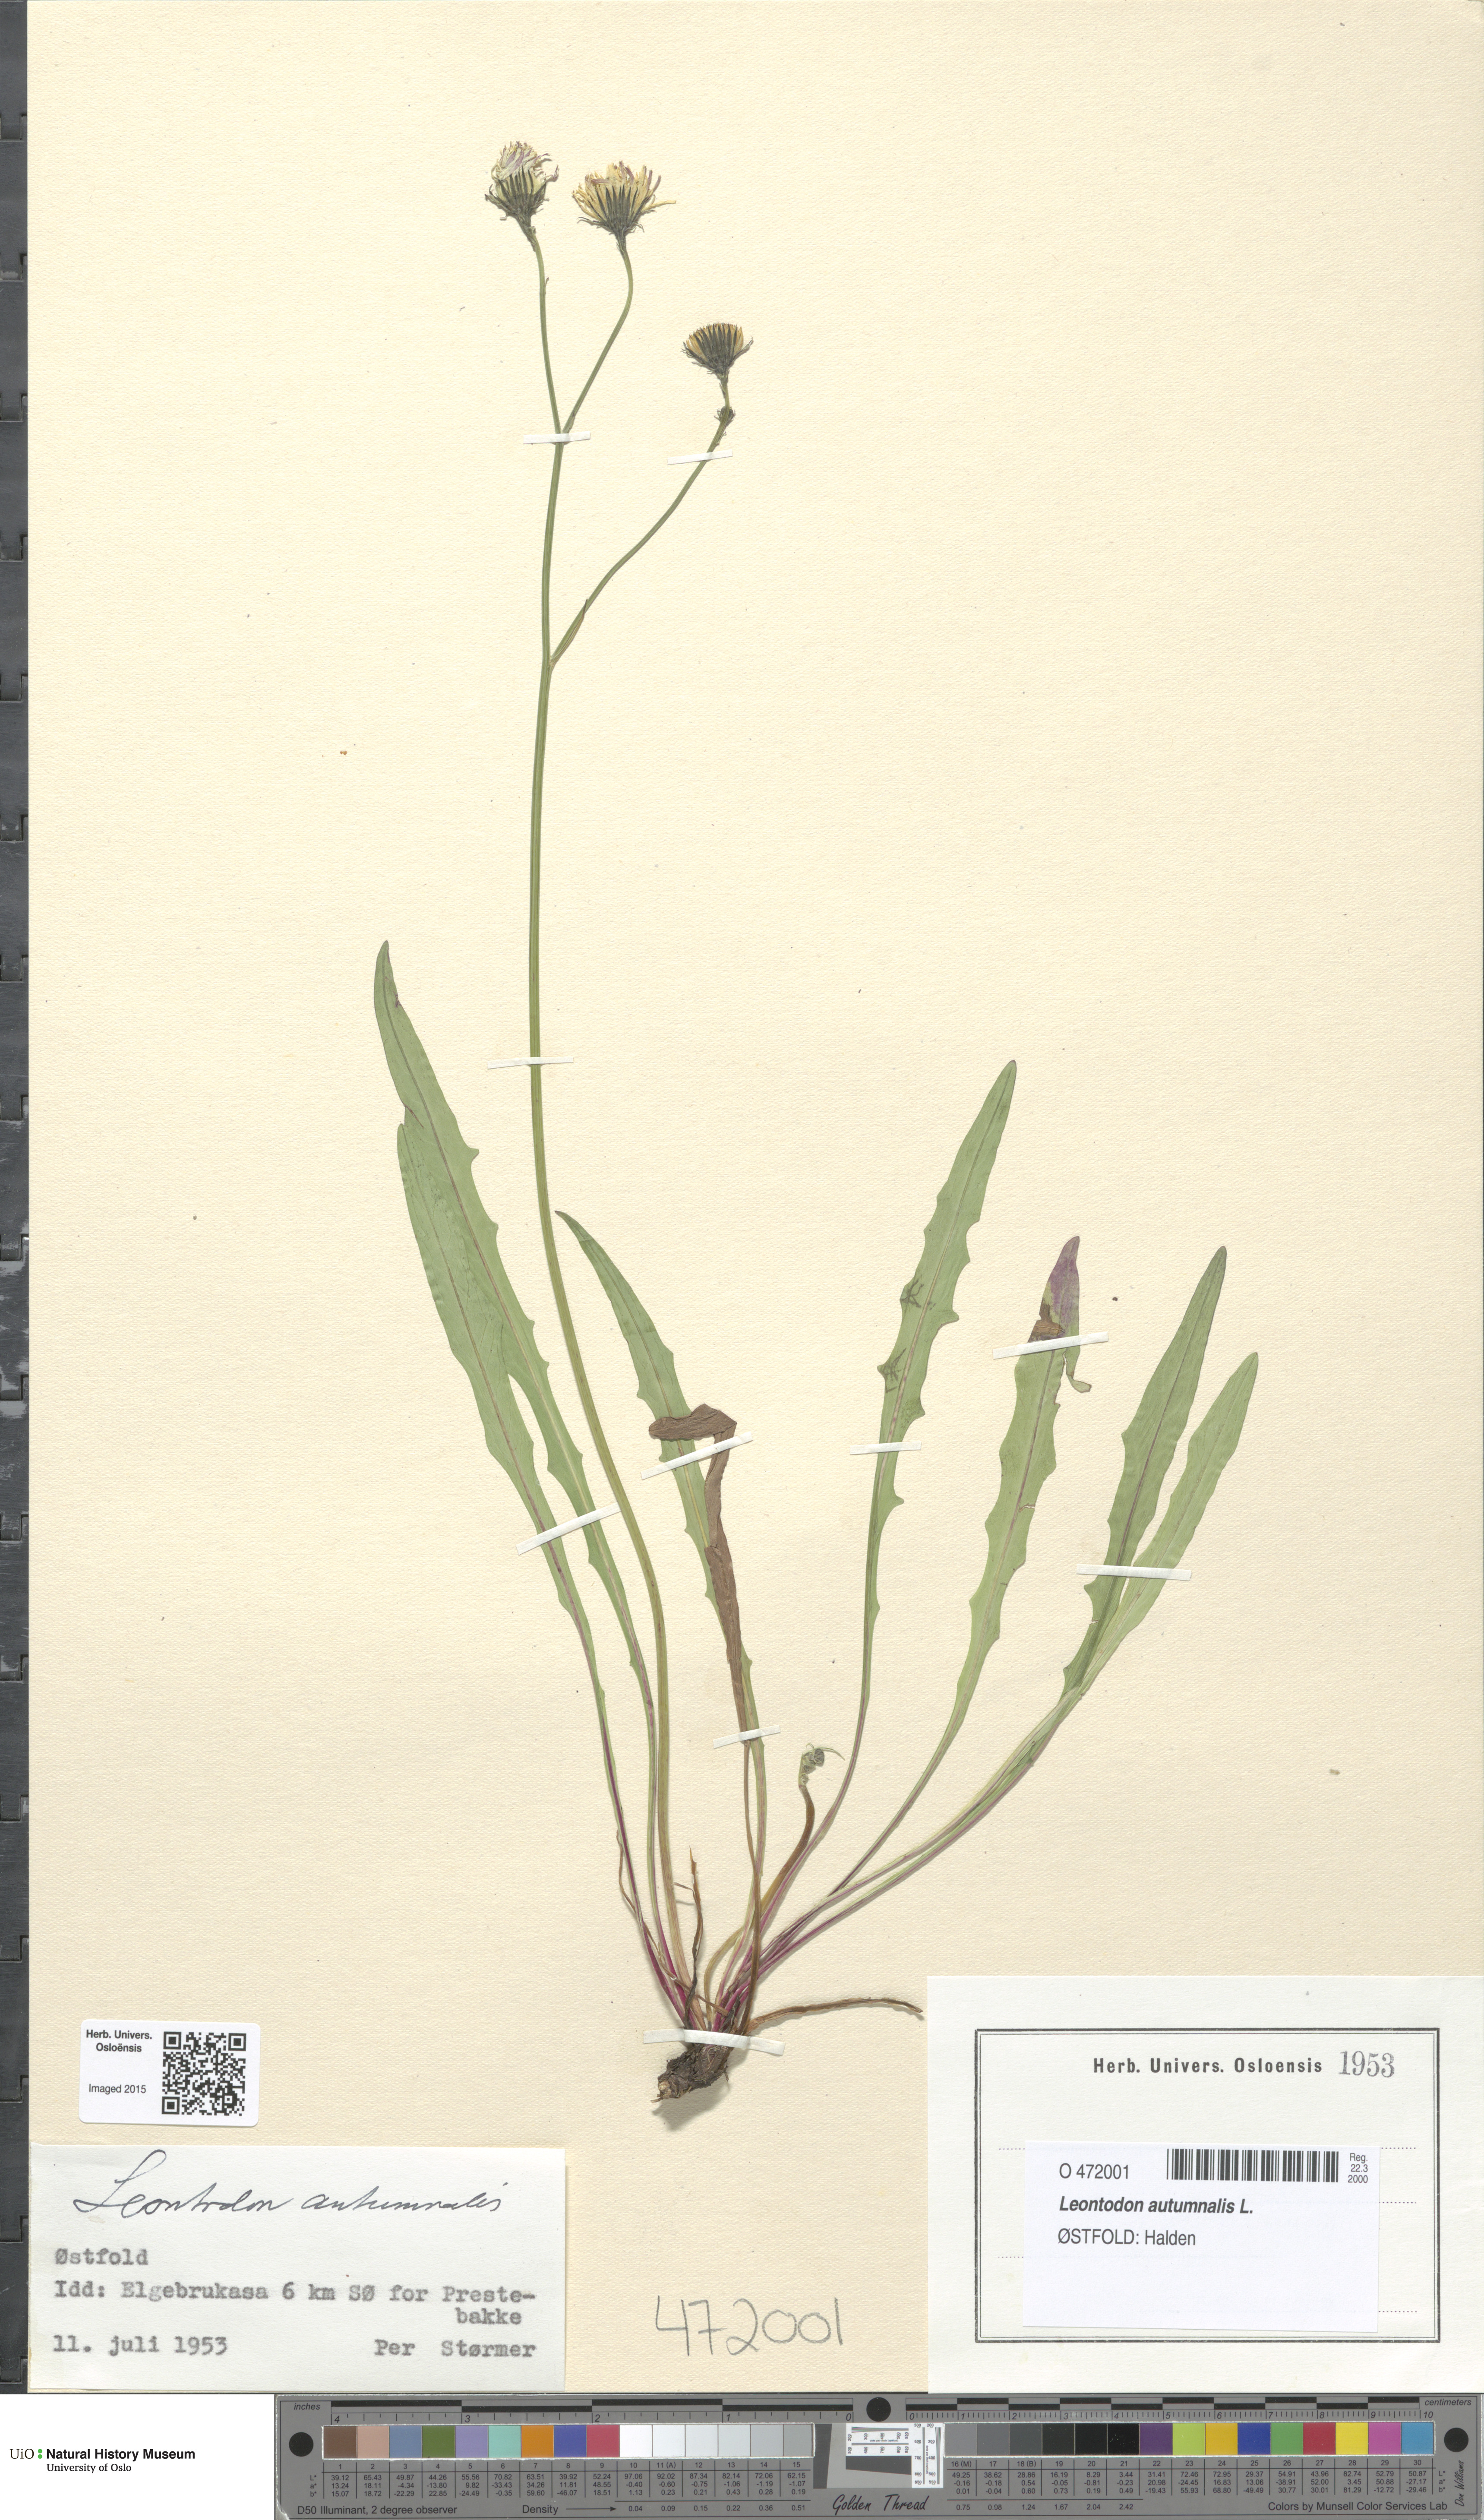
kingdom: Plantae
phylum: Tracheophyta
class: Magnoliopsida
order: Asterales
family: Asteraceae
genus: Scorzoneroides
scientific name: Scorzoneroides autumnalis
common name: Autumn hawkbit
